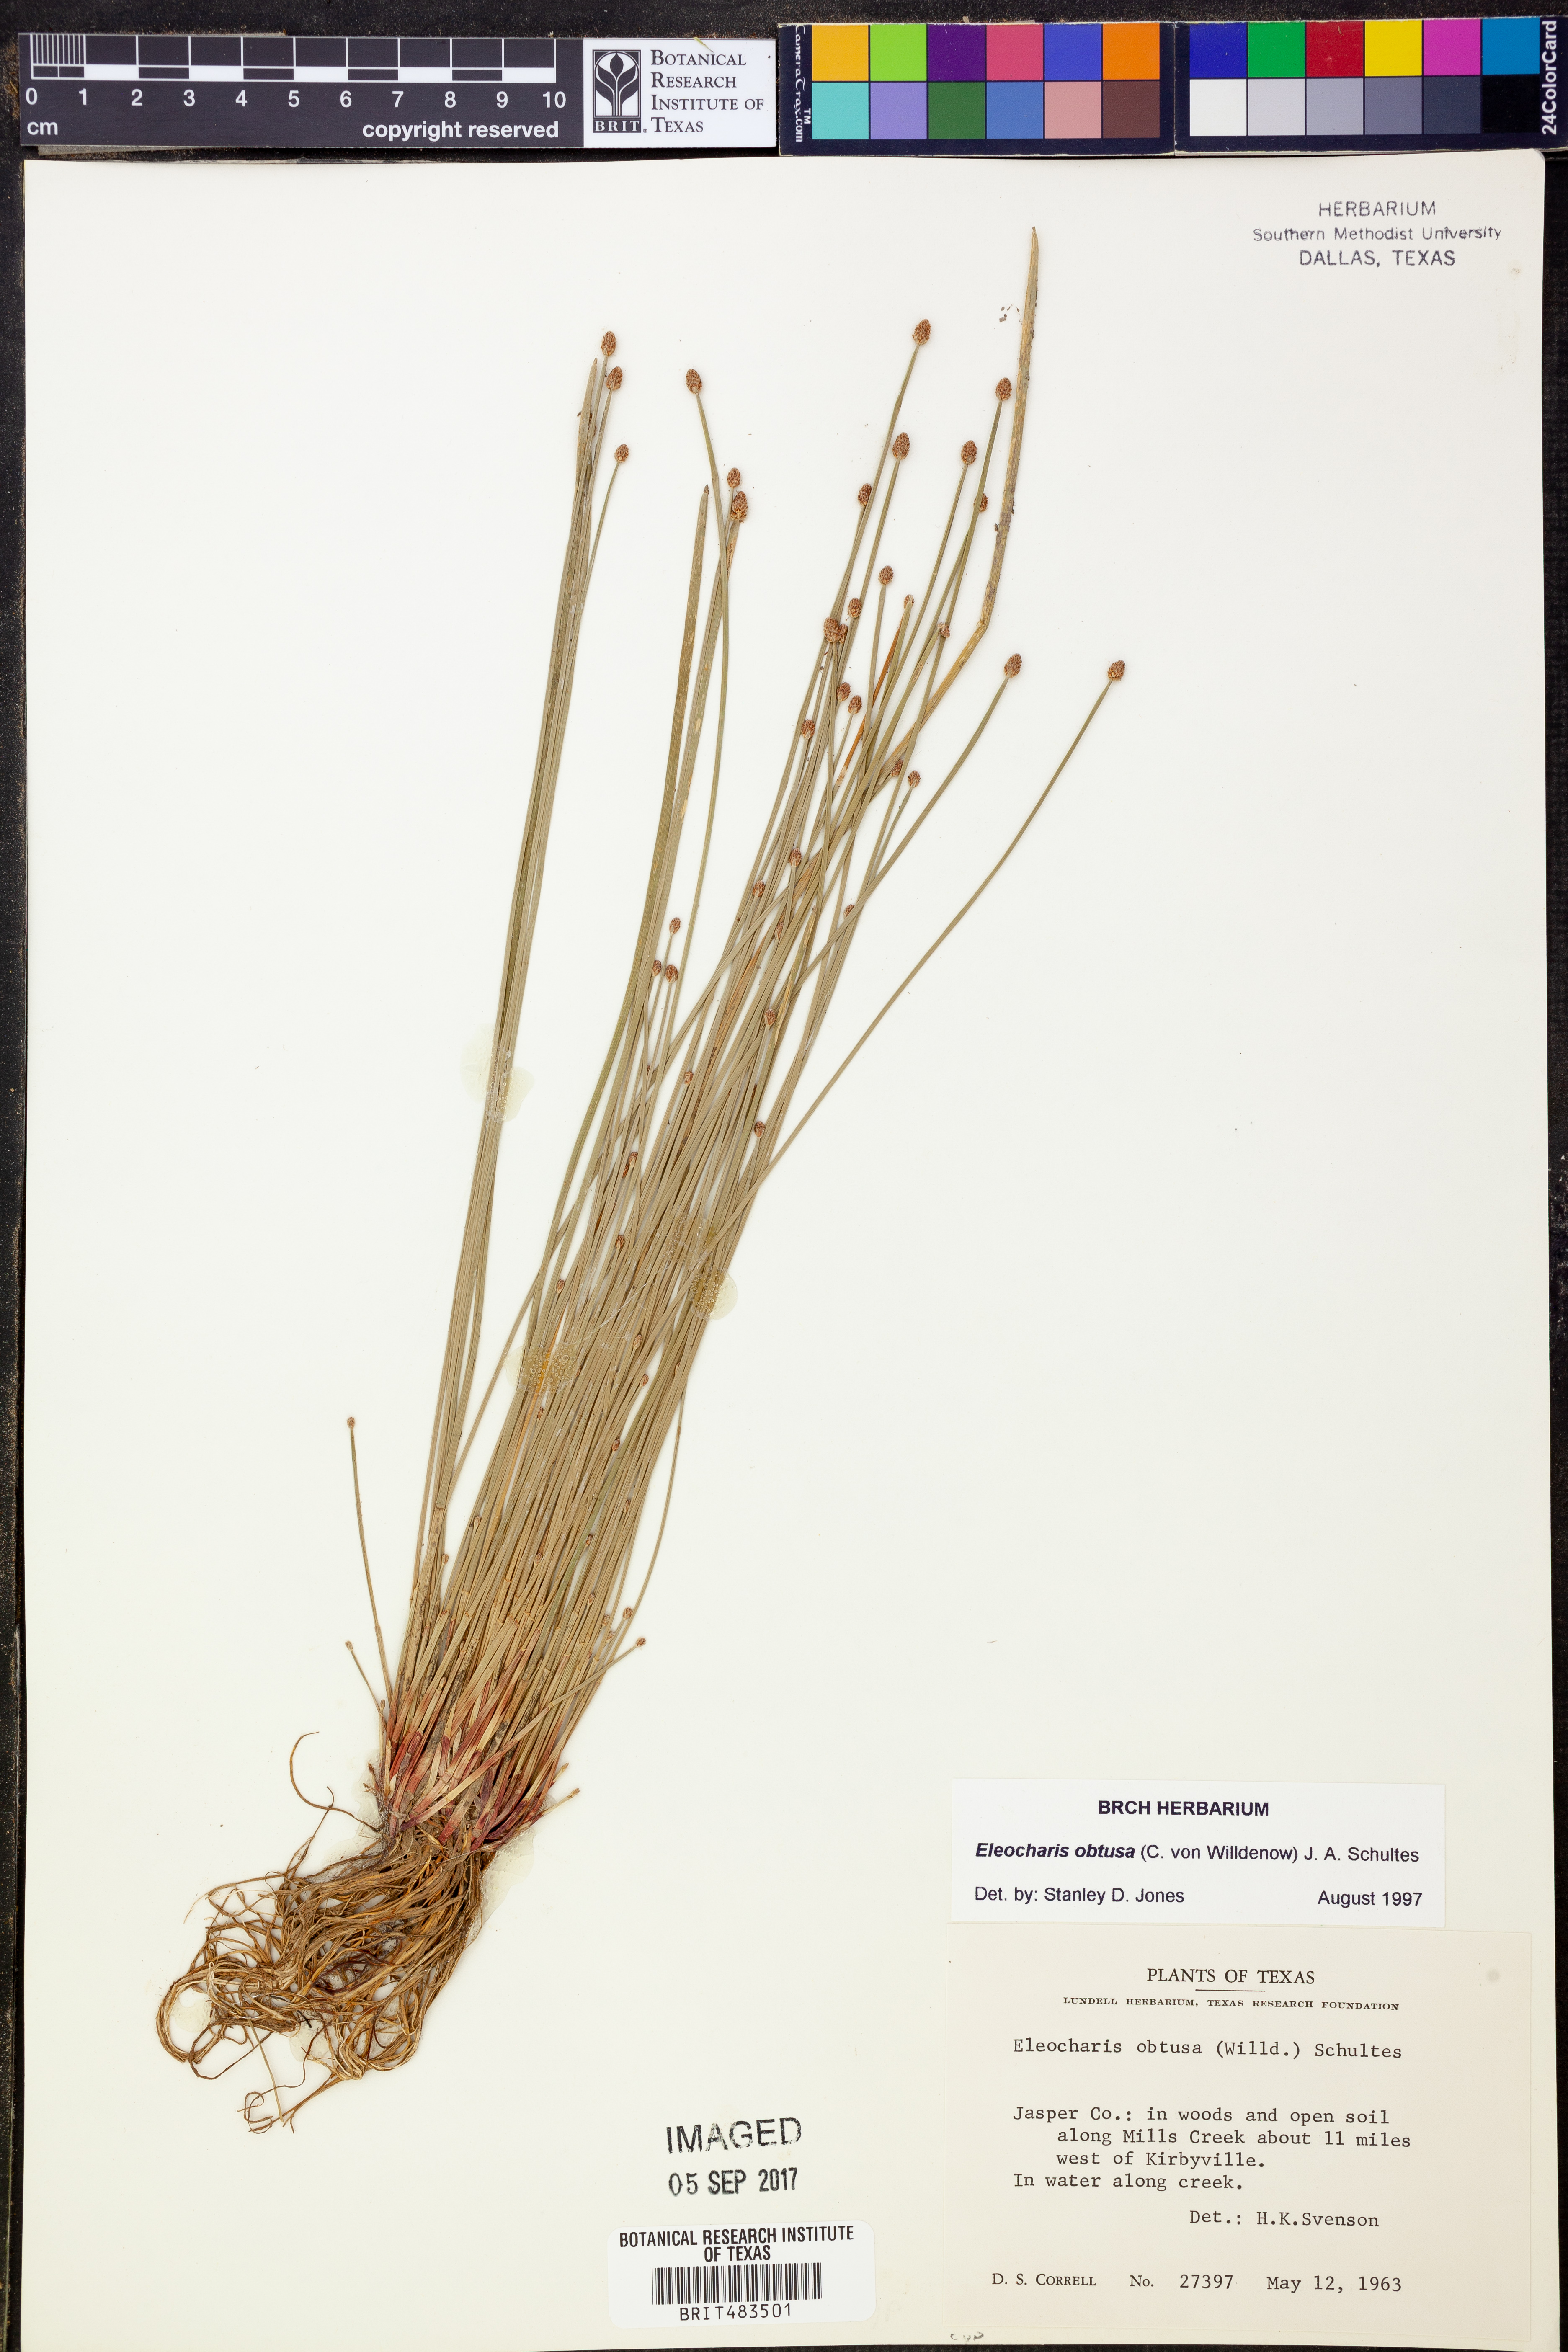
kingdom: Plantae
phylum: Tracheophyta
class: Liliopsida
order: Poales
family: Cyperaceae
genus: Eleocharis
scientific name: Eleocharis obtusa
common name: Blunt spikerush
